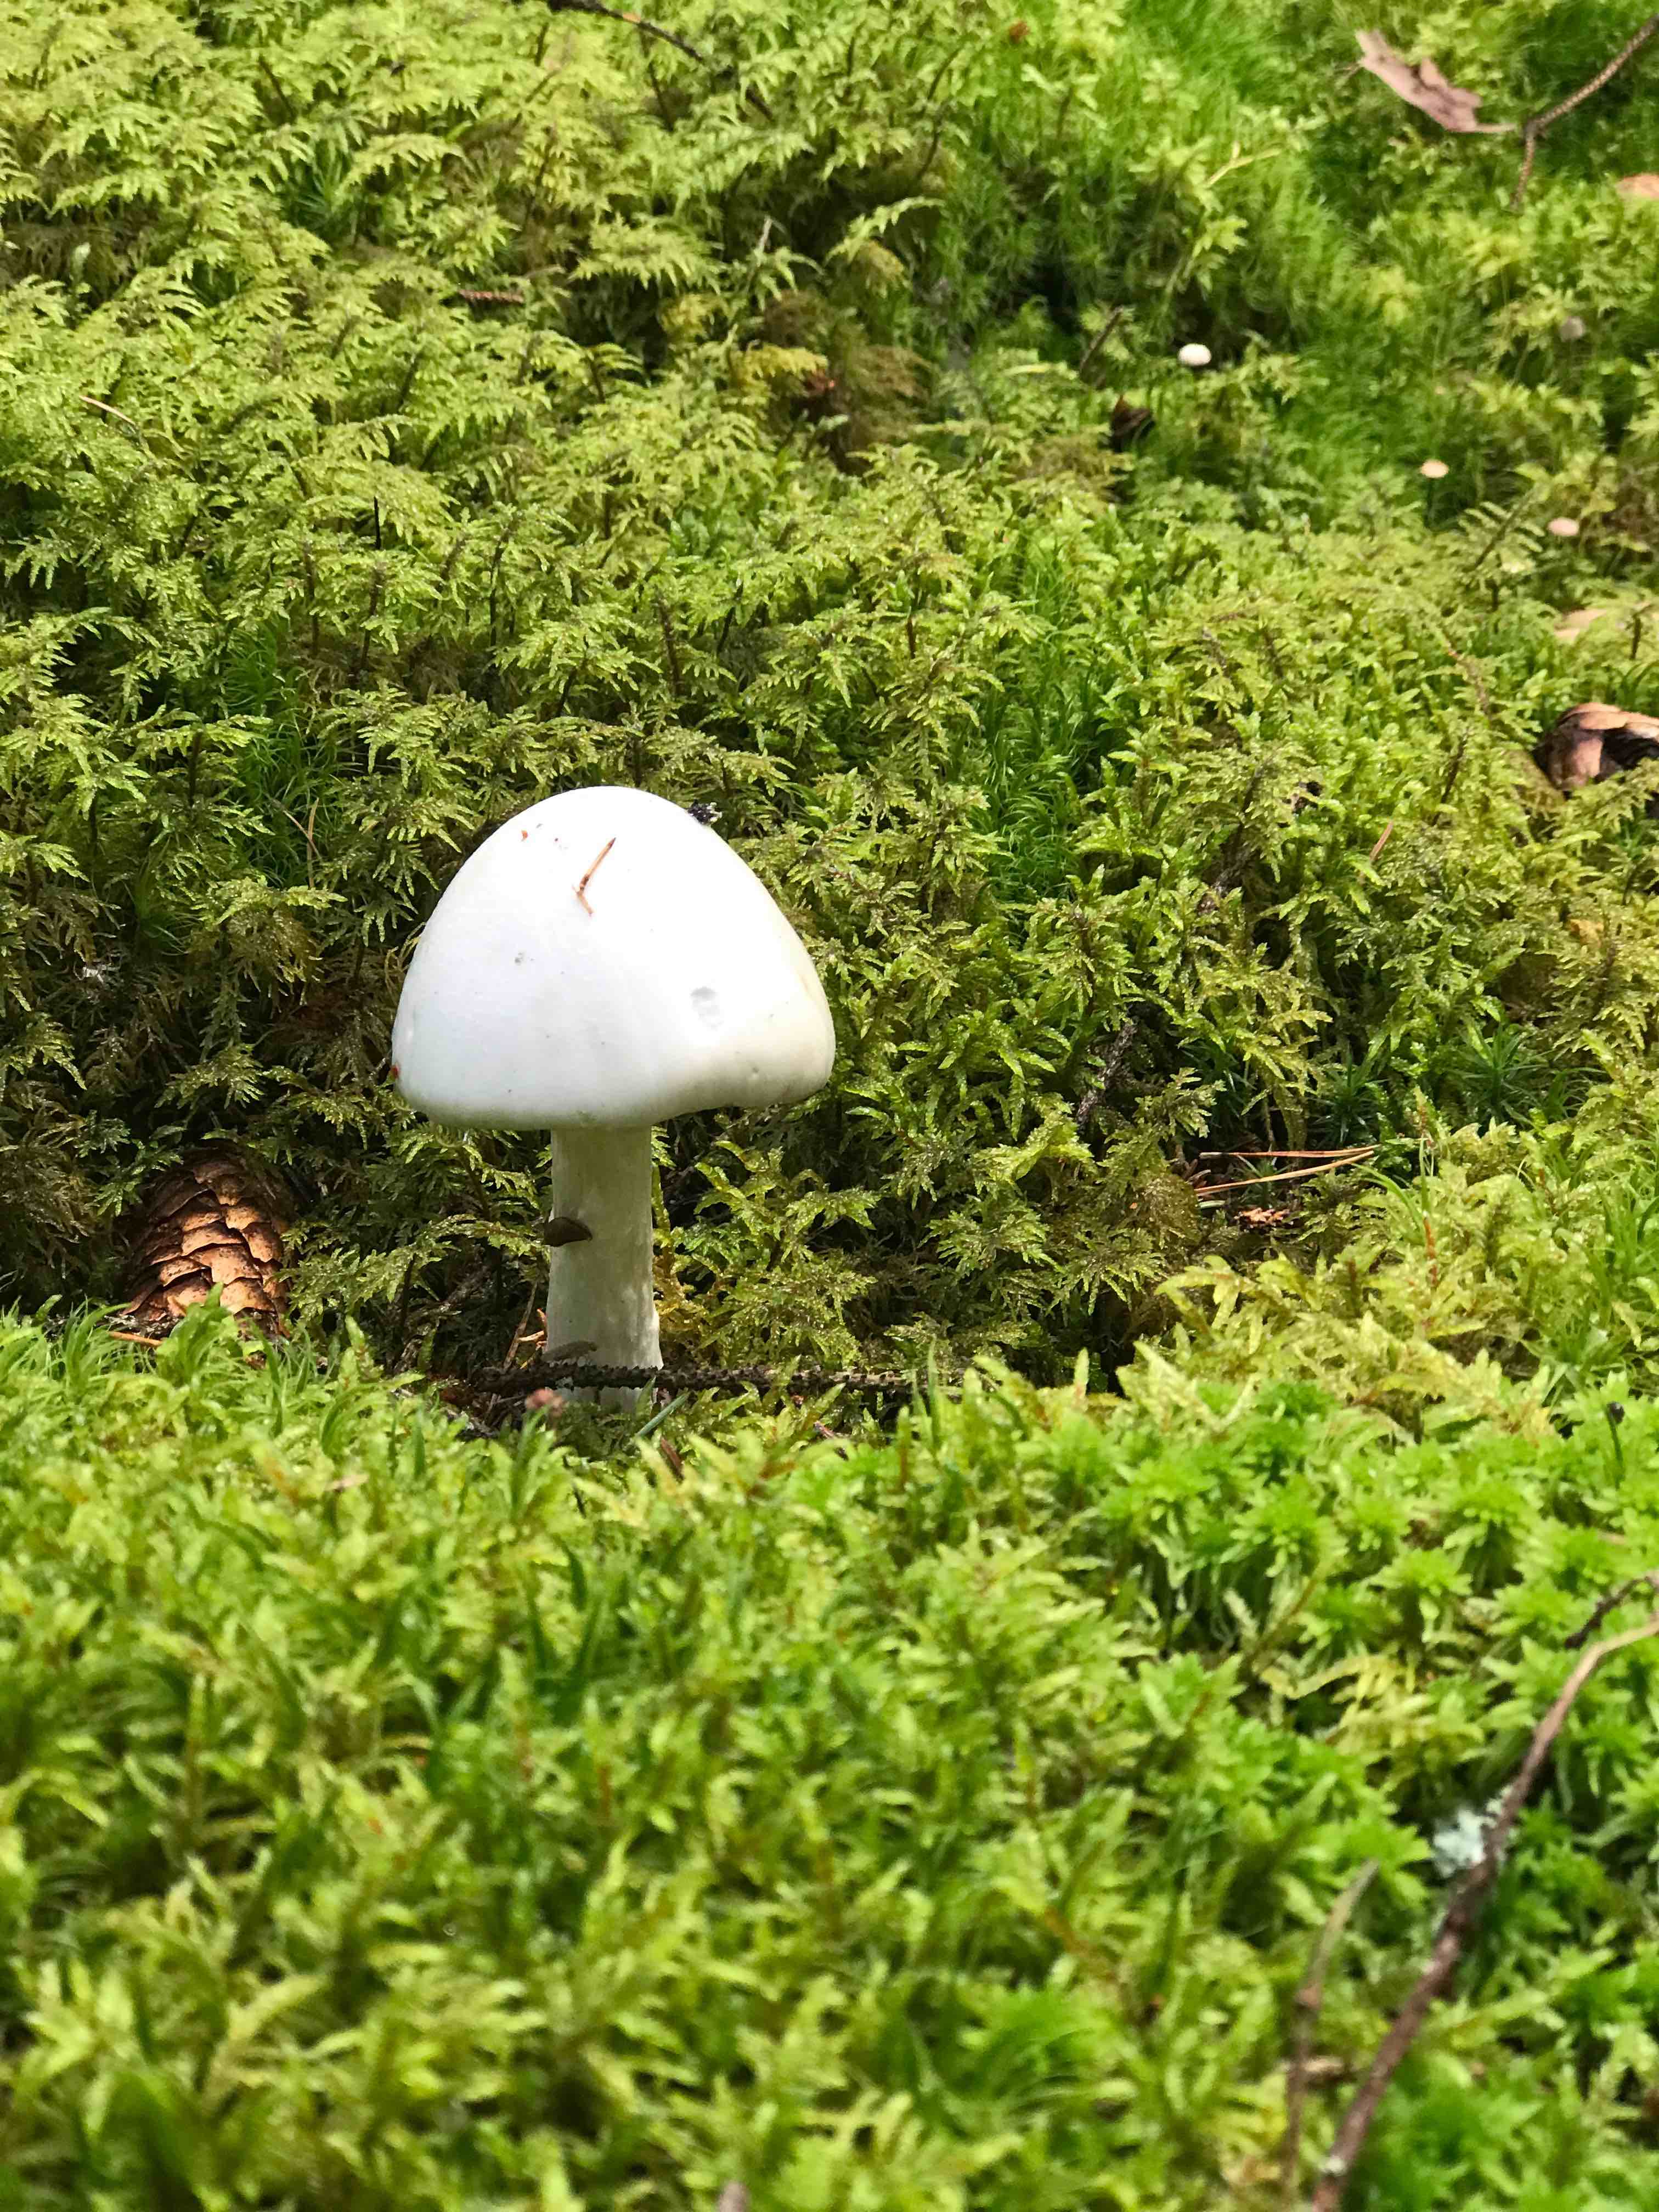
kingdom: Fungi
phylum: Basidiomycota
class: Agaricomycetes
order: Agaricales
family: Amanitaceae
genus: Amanita
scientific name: Amanita virosa
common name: snehvid fluesvamp
